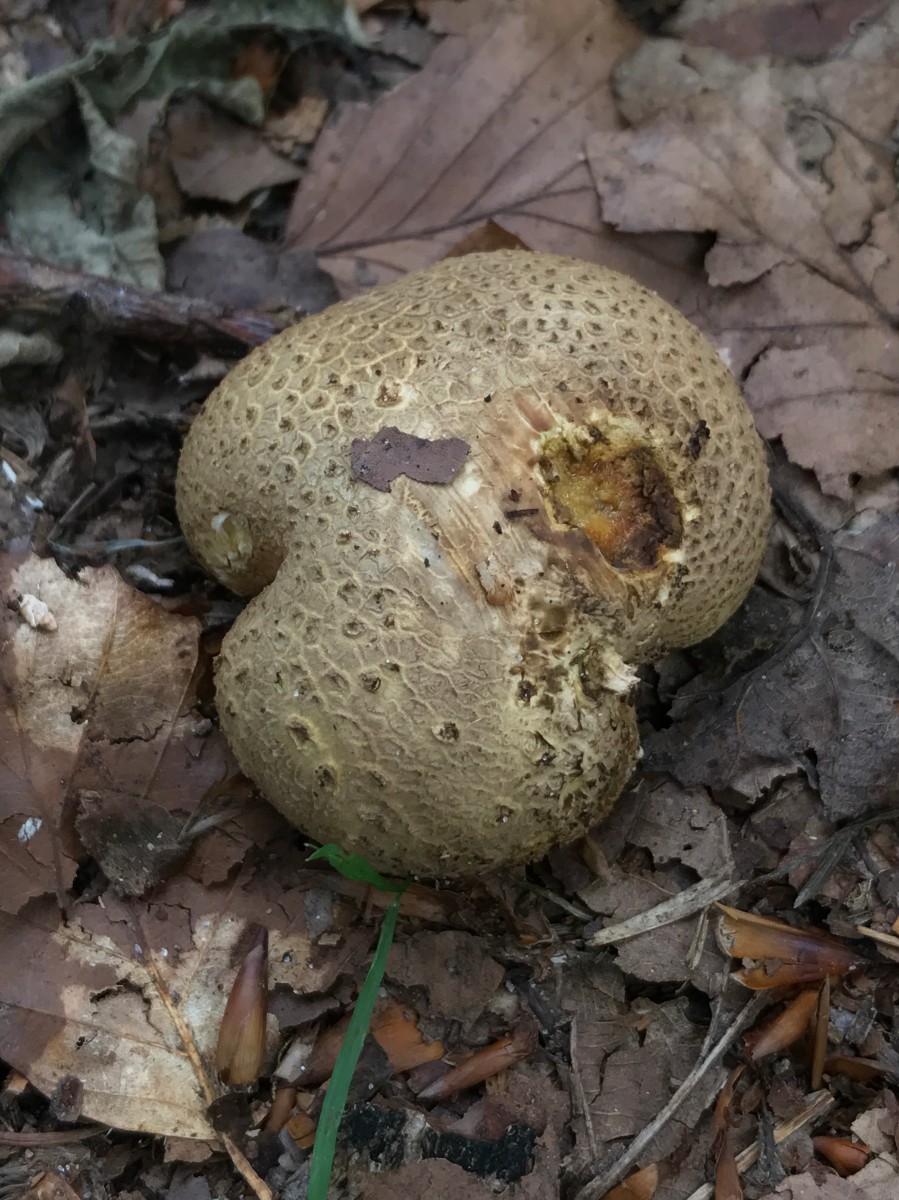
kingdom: Fungi
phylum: Basidiomycota
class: Agaricomycetes
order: Boletales
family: Sclerodermataceae
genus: Scleroderma
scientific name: Scleroderma citrinum
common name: almindelig bruskbold
